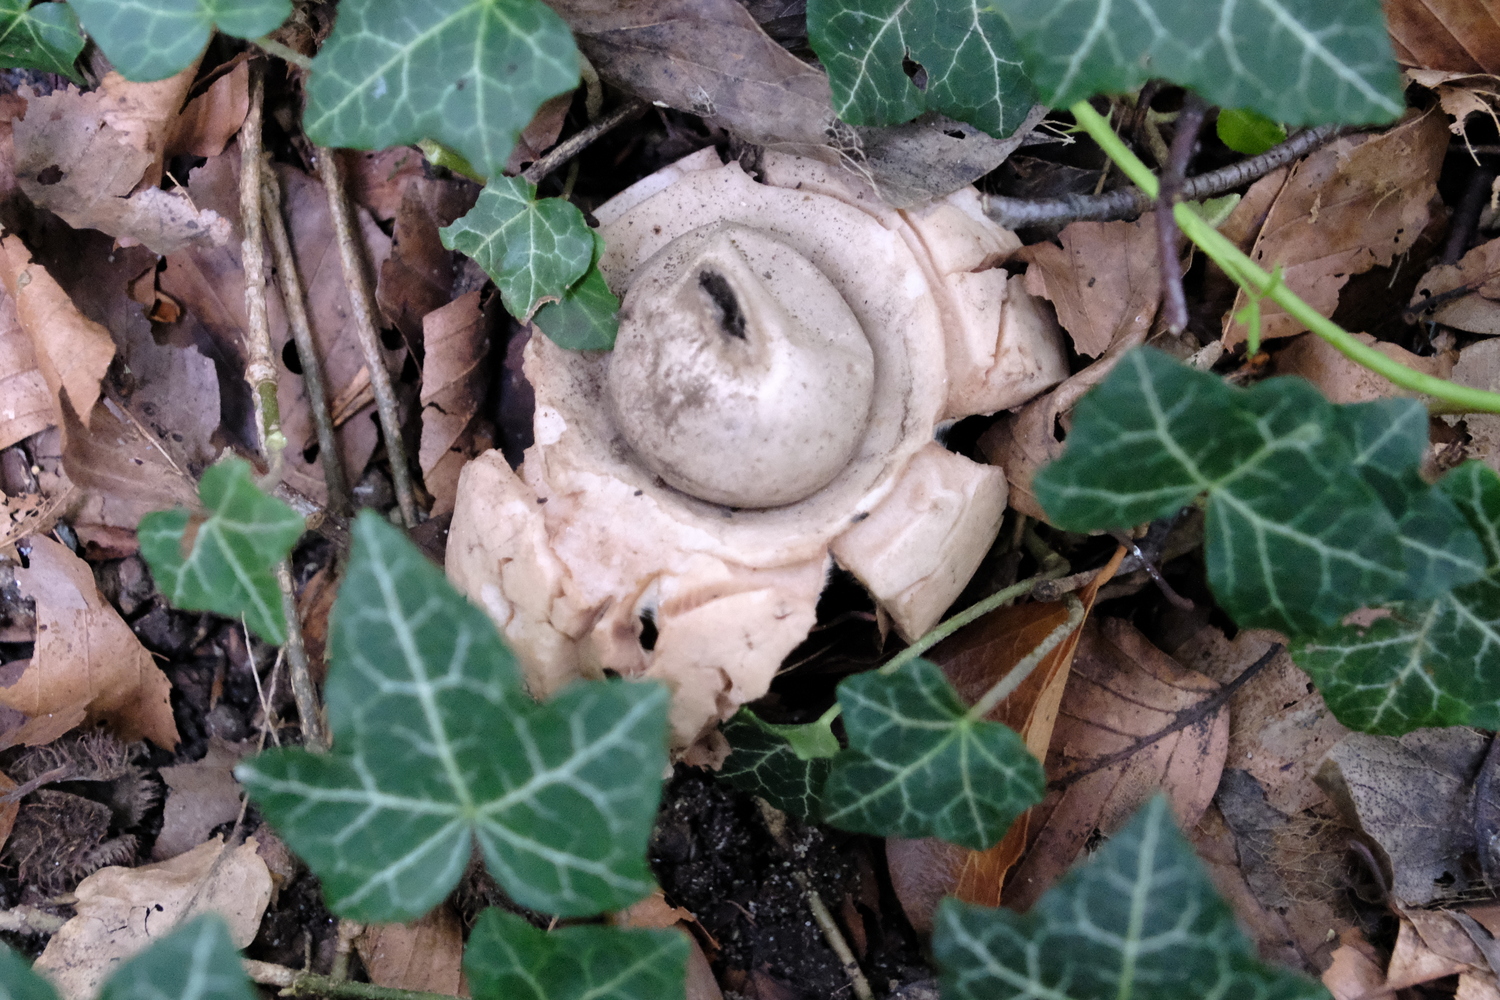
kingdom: Fungi
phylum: Basidiomycota
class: Agaricomycetes
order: Geastrales
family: Geastraceae
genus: Geastrum
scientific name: Geastrum michelianum
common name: kødet stjernebold
